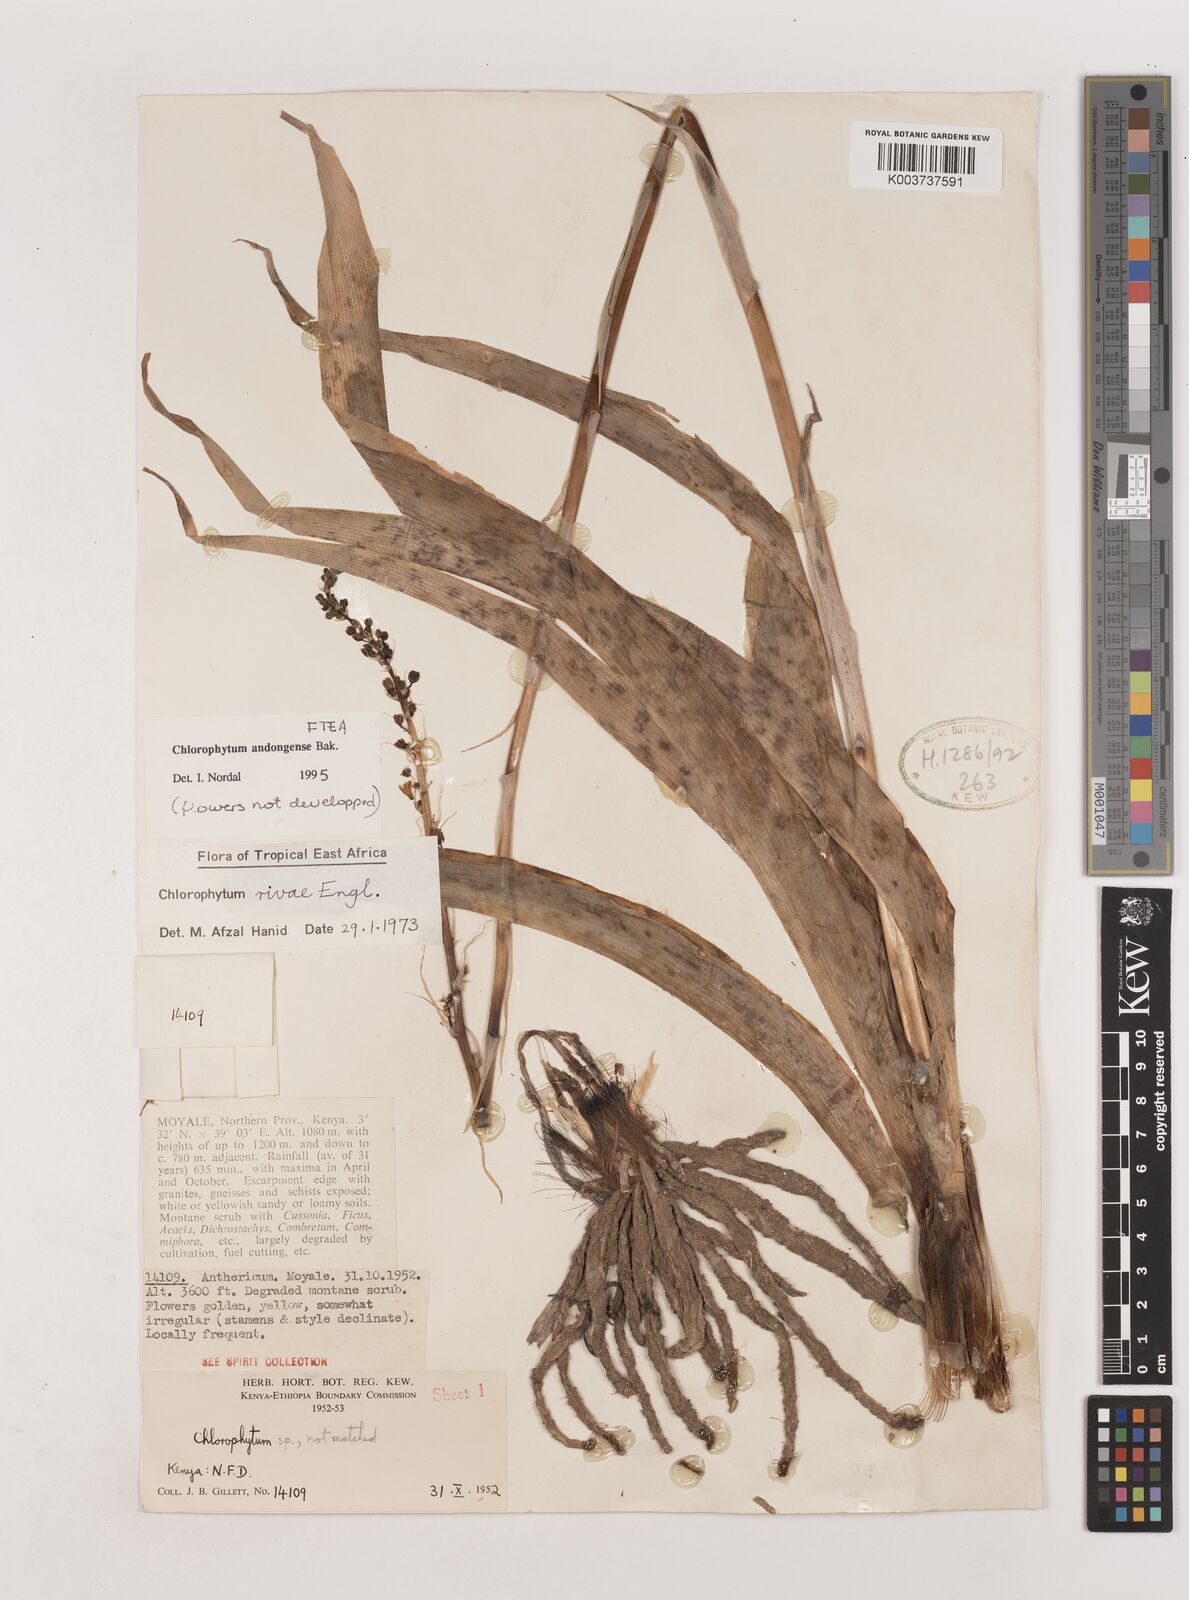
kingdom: Plantae
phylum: Tracheophyta
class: Liliopsida
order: Asparagales
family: Asparagaceae
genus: Chlorophytum
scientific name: Chlorophytum andongense
